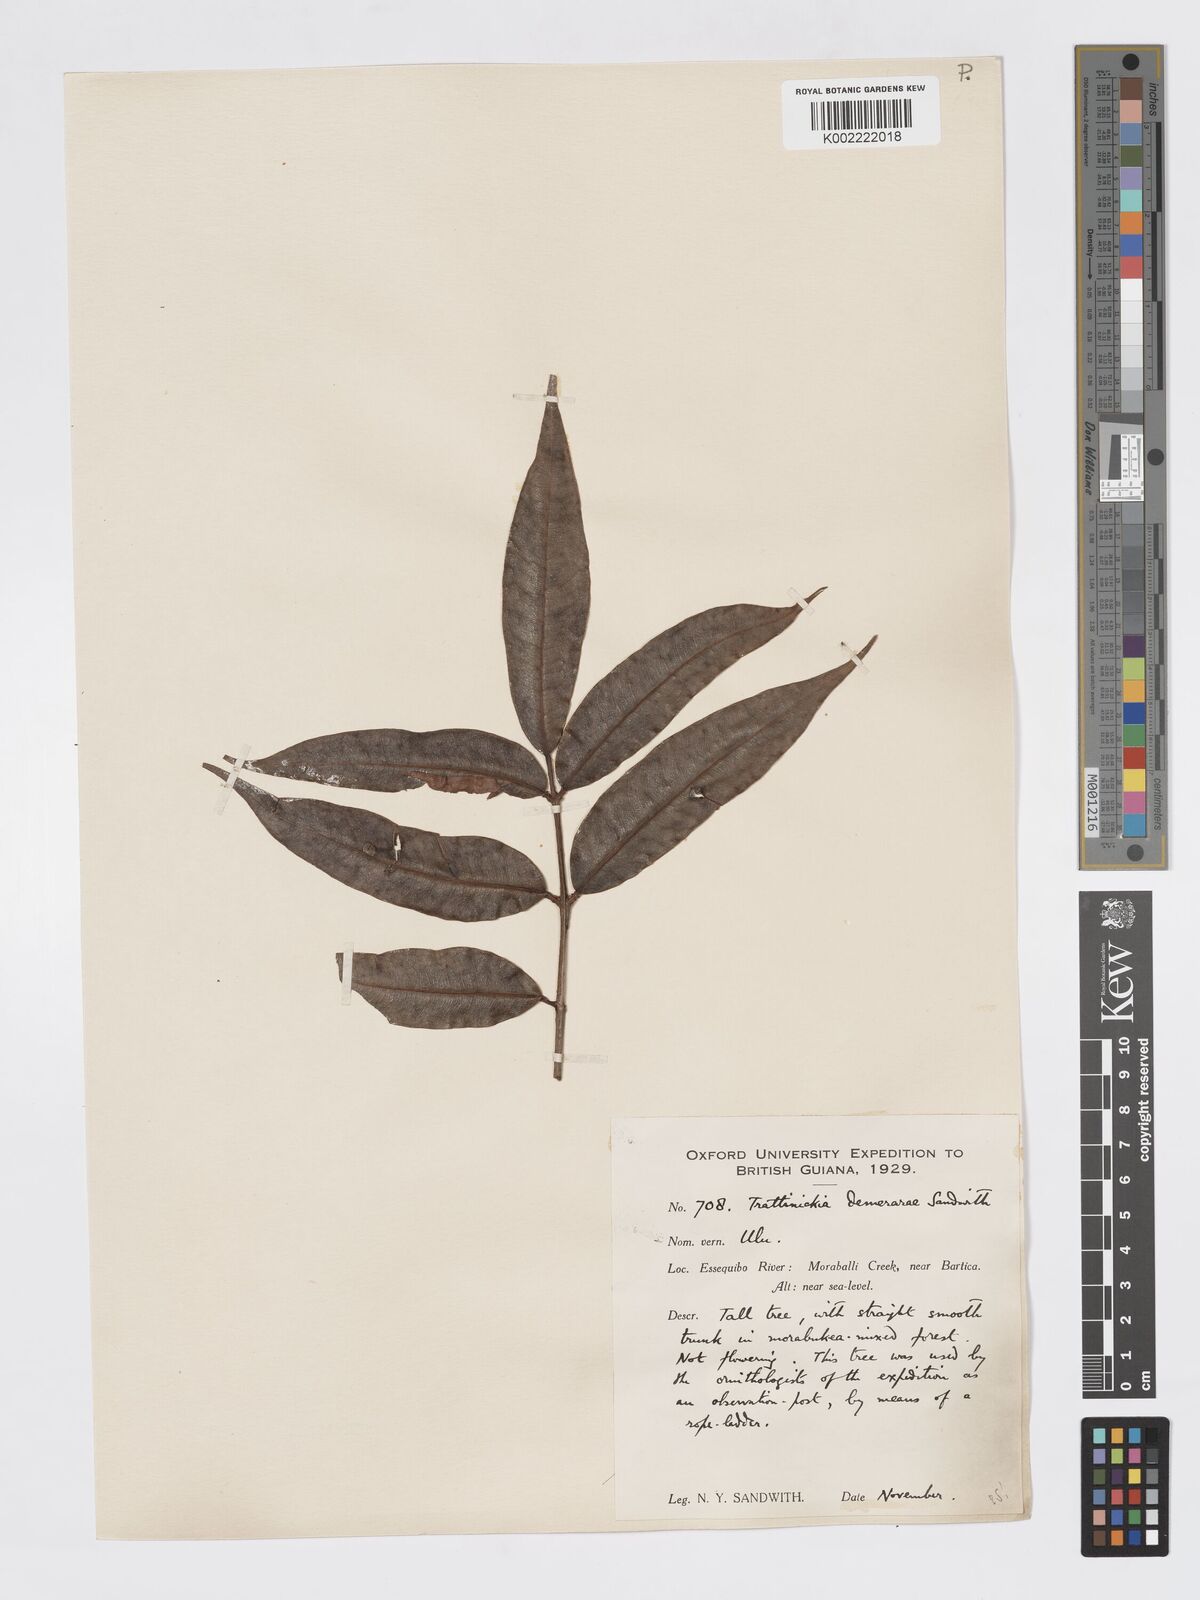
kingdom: Plantae
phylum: Tracheophyta
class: Magnoliopsida
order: Sapindales
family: Burseraceae
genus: Trattinnickia
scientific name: Trattinnickia demerarae
